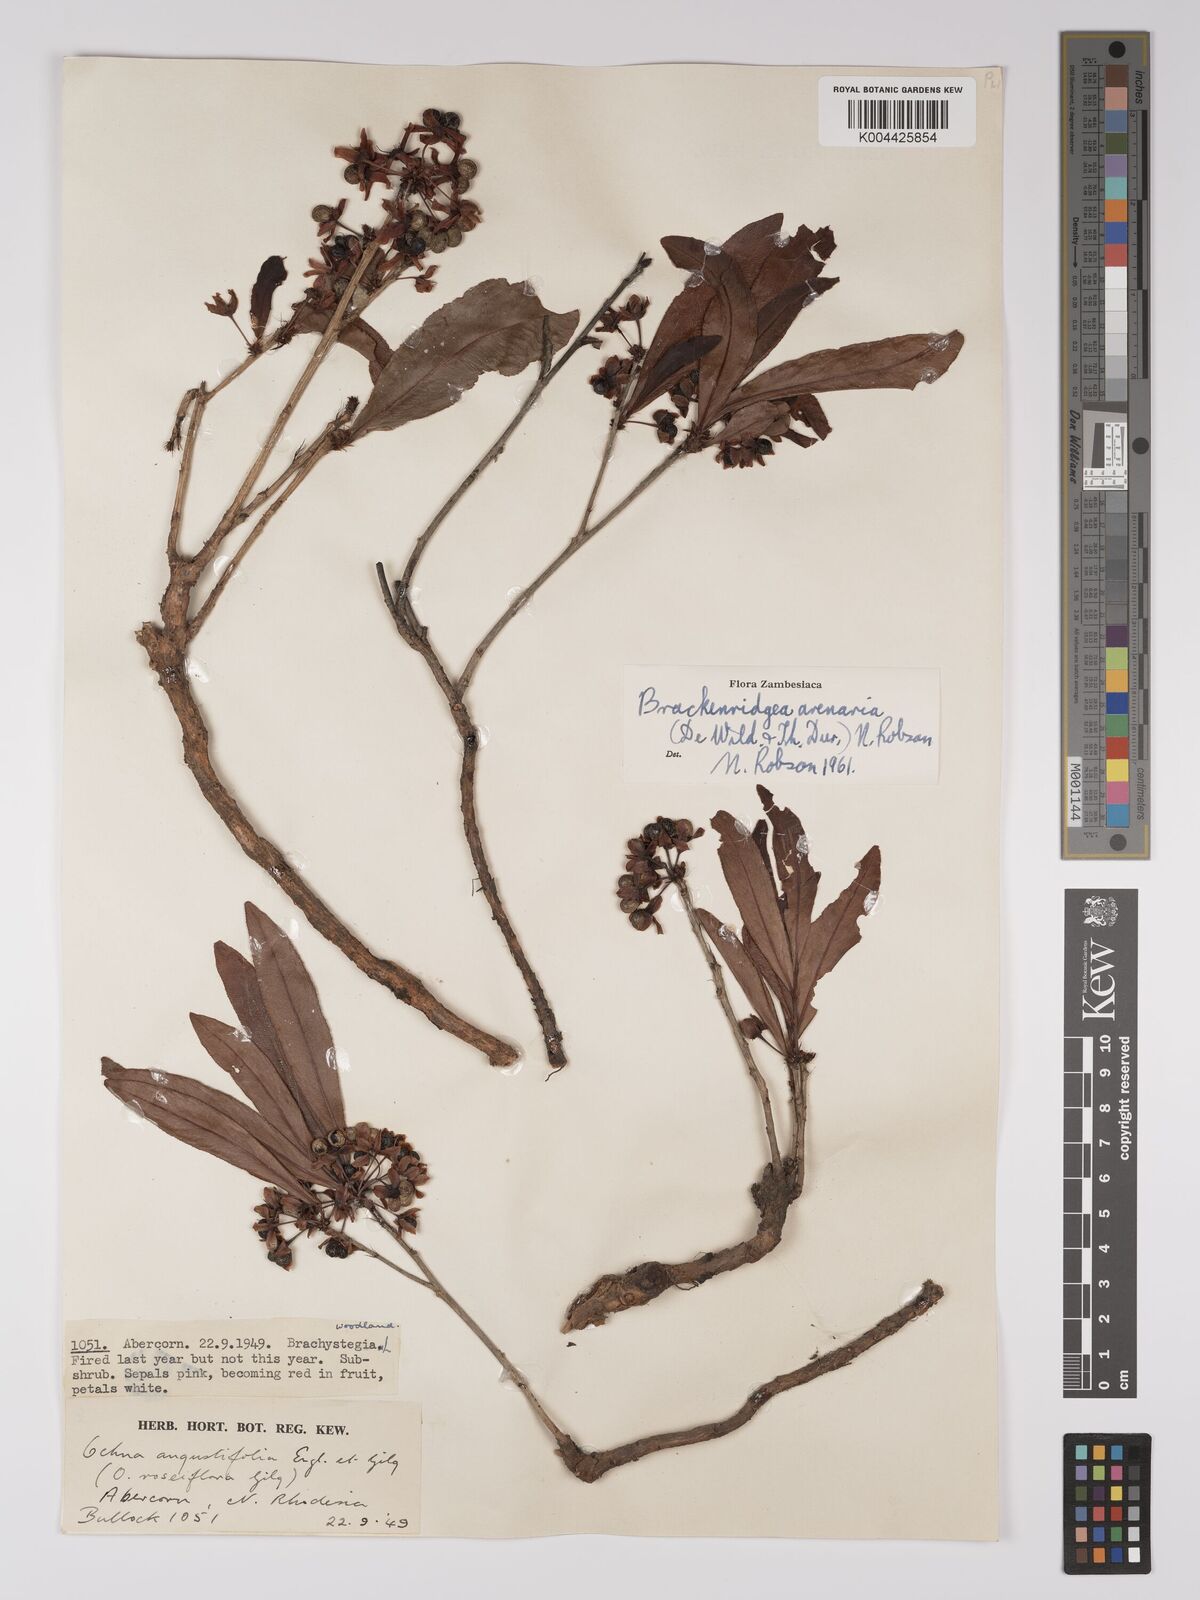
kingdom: Plantae
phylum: Tracheophyta
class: Magnoliopsida
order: Malpighiales
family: Ochnaceae
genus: Ochna
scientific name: Ochna arenaria
